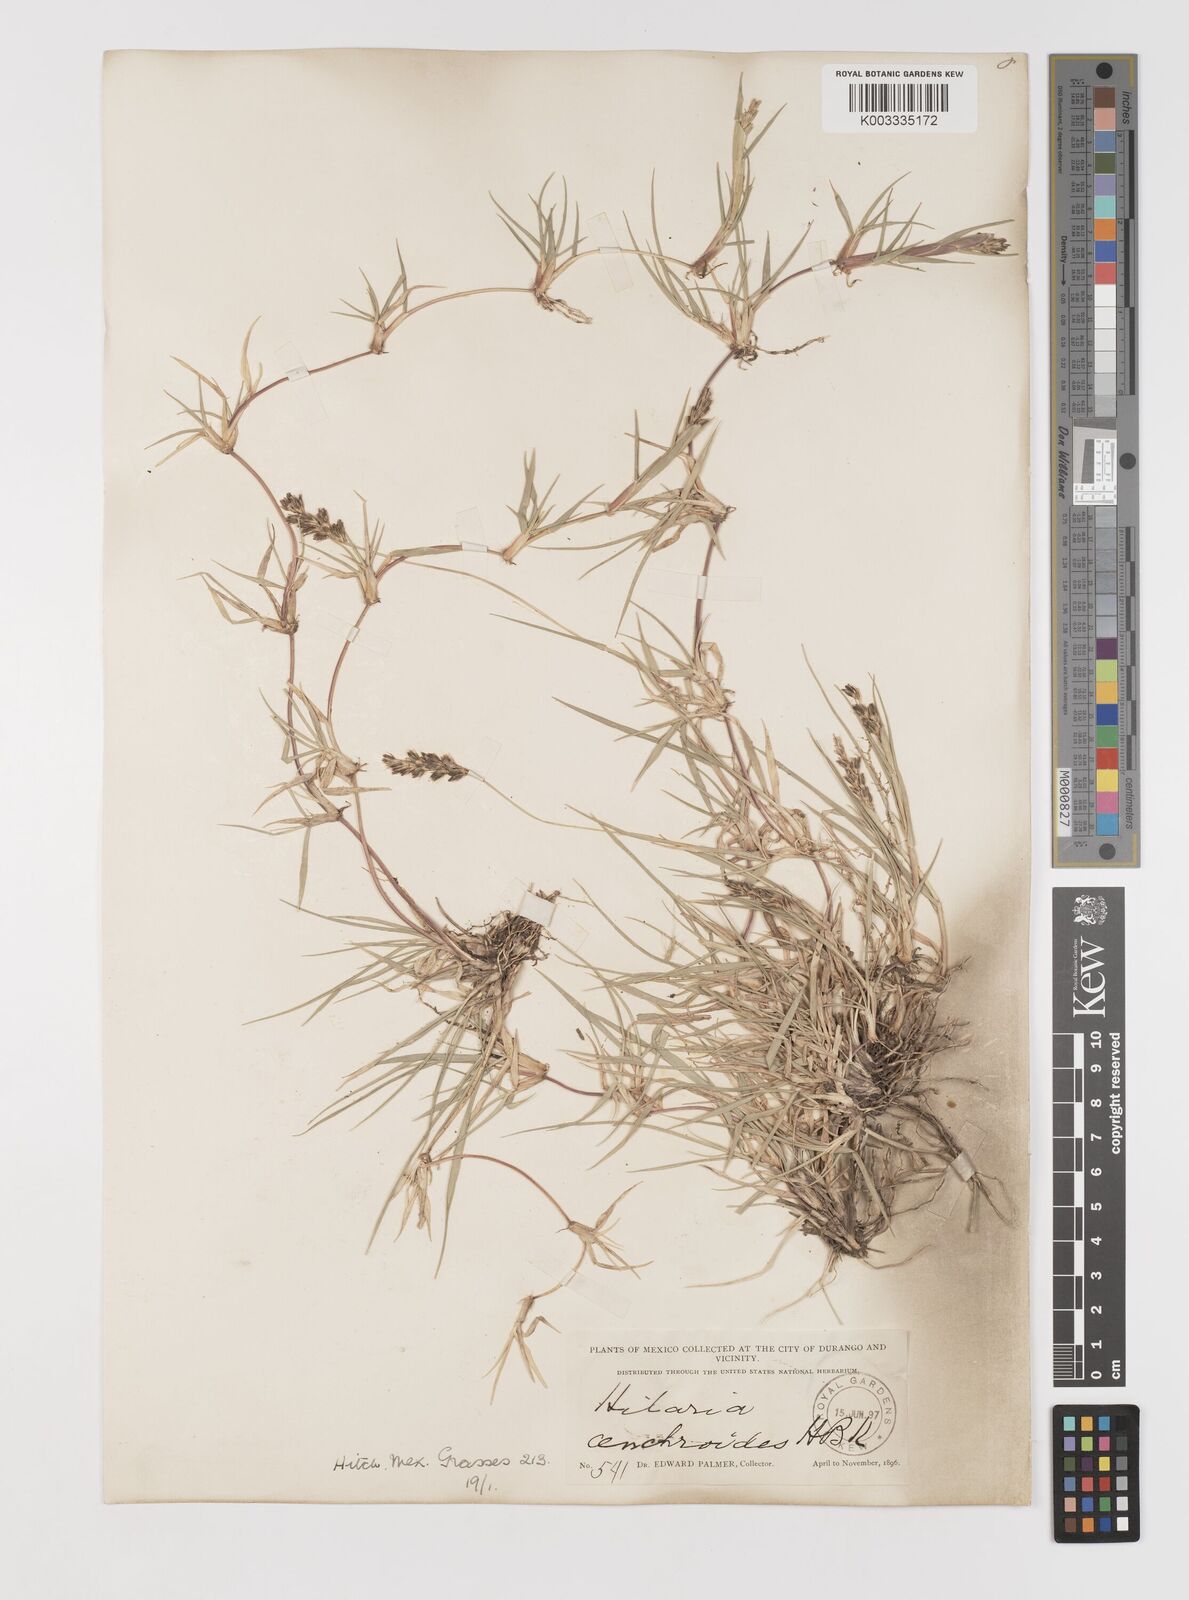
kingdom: Plantae
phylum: Tracheophyta
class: Liliopsida
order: Poales
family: Poaceae
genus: Hilaria
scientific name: Hilaria cenchroides
